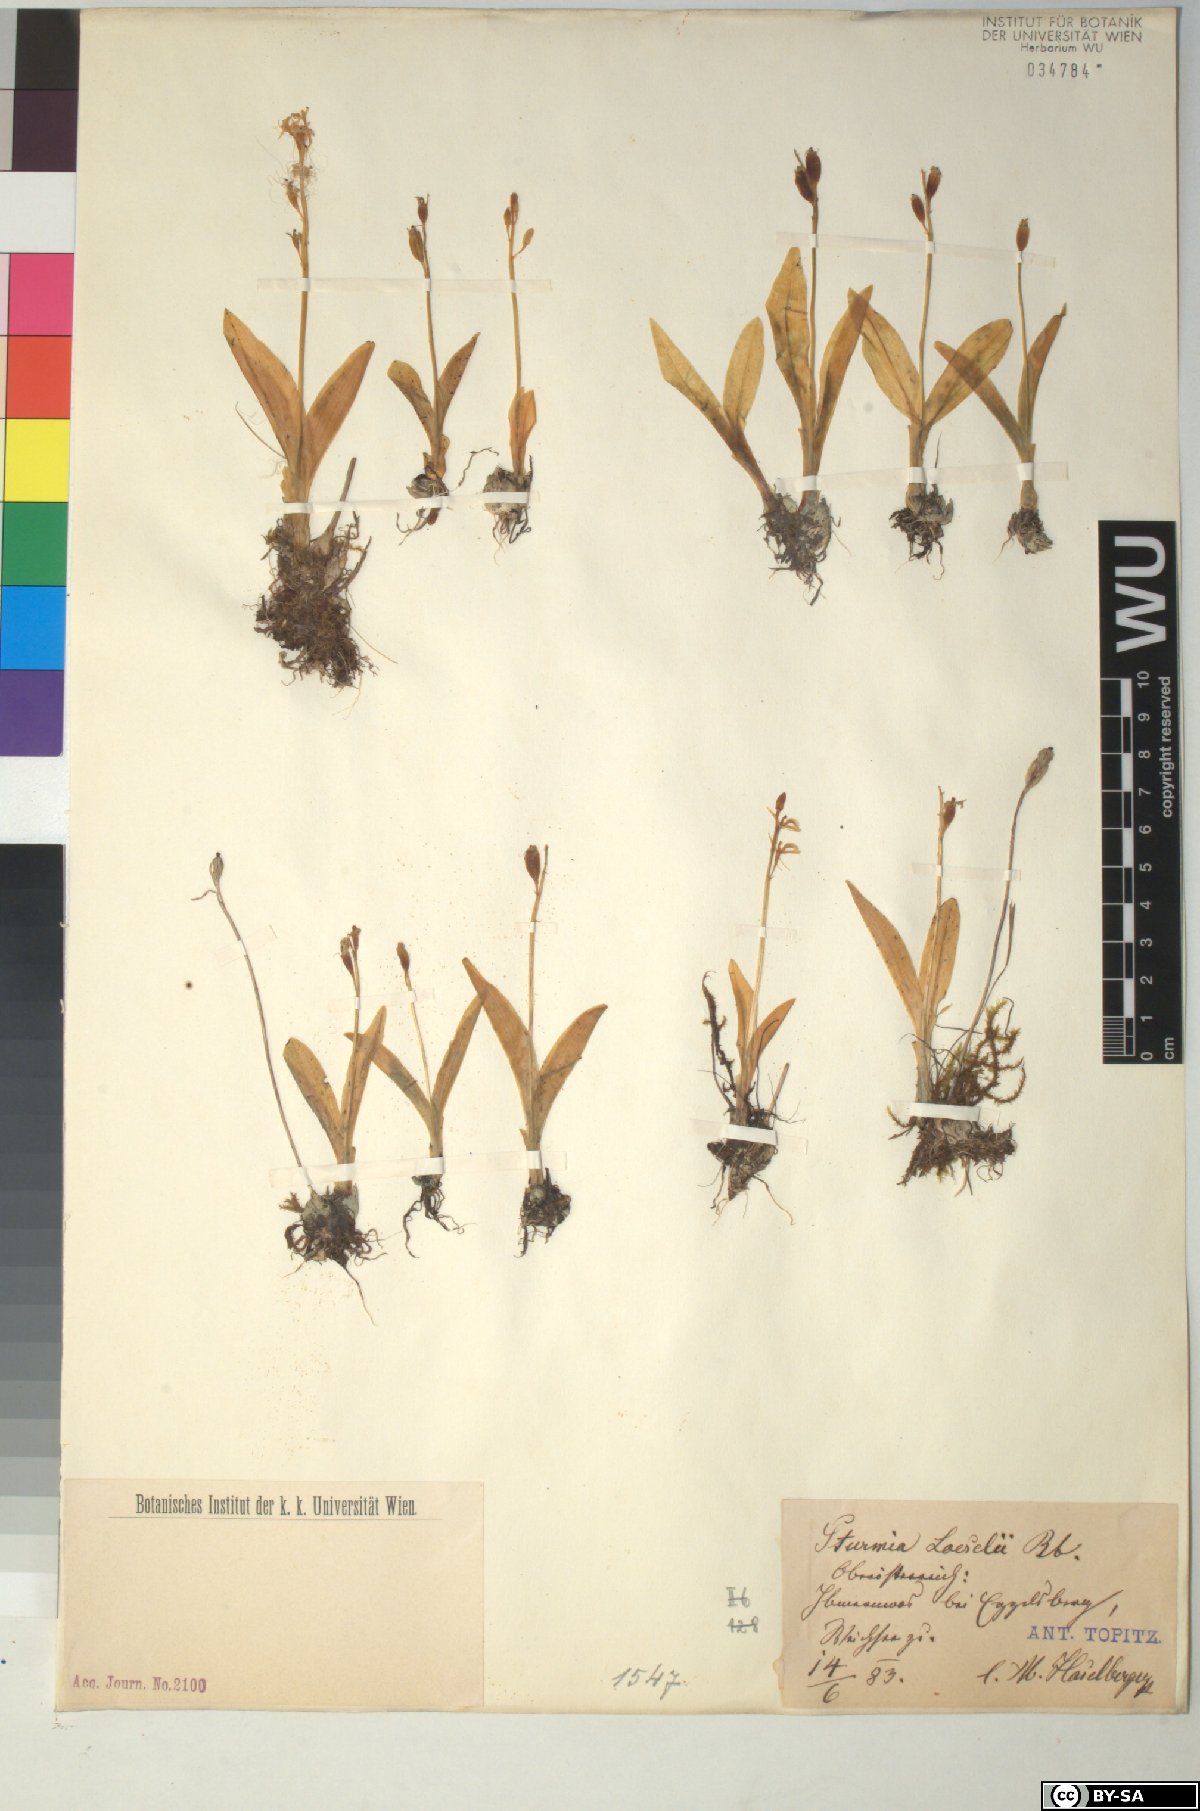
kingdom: Animalia
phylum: Arthropoda
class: Insecta
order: Coleoptera
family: Curculionidae
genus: Liparis
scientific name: Liparis loeselii
